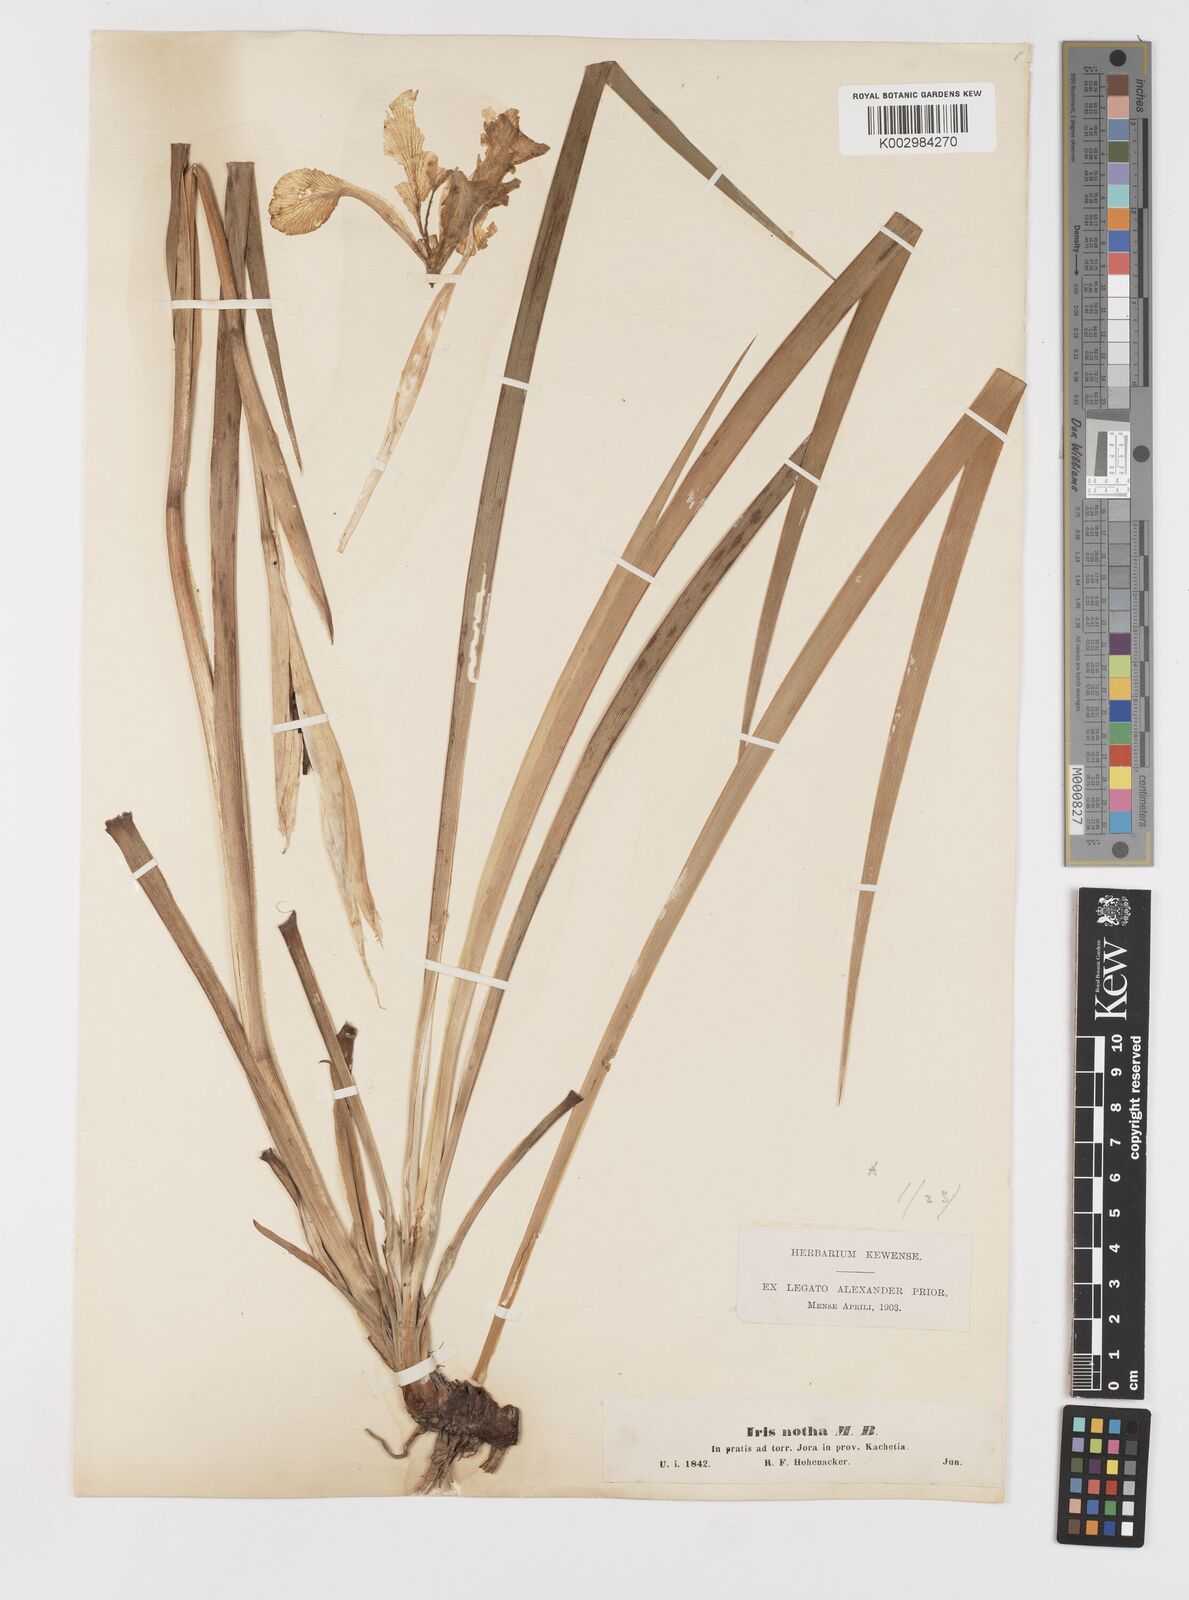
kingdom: Plantae
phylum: Tracheophyta
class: Liliopsida
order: Asparagales
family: Iridaceae
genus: Iris
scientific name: Iris spuria
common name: Blue iris
